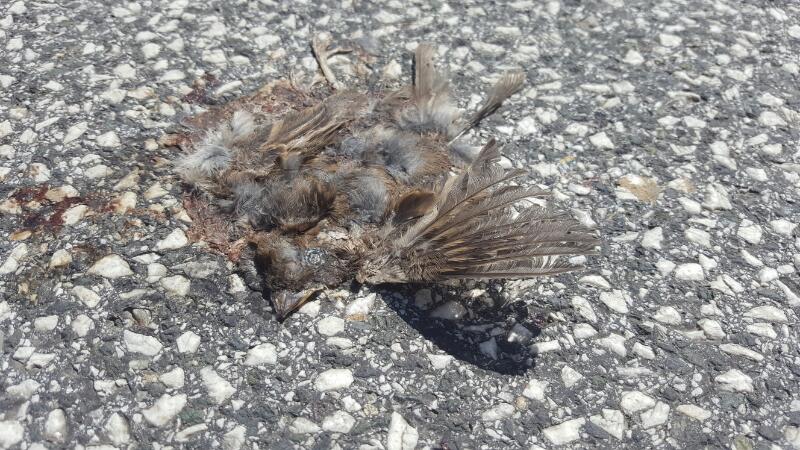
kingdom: Animalia
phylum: Chordata
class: Aves
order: Passeriformes
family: Passeridae
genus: Passer
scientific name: Passer domesticus
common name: House sparrow
